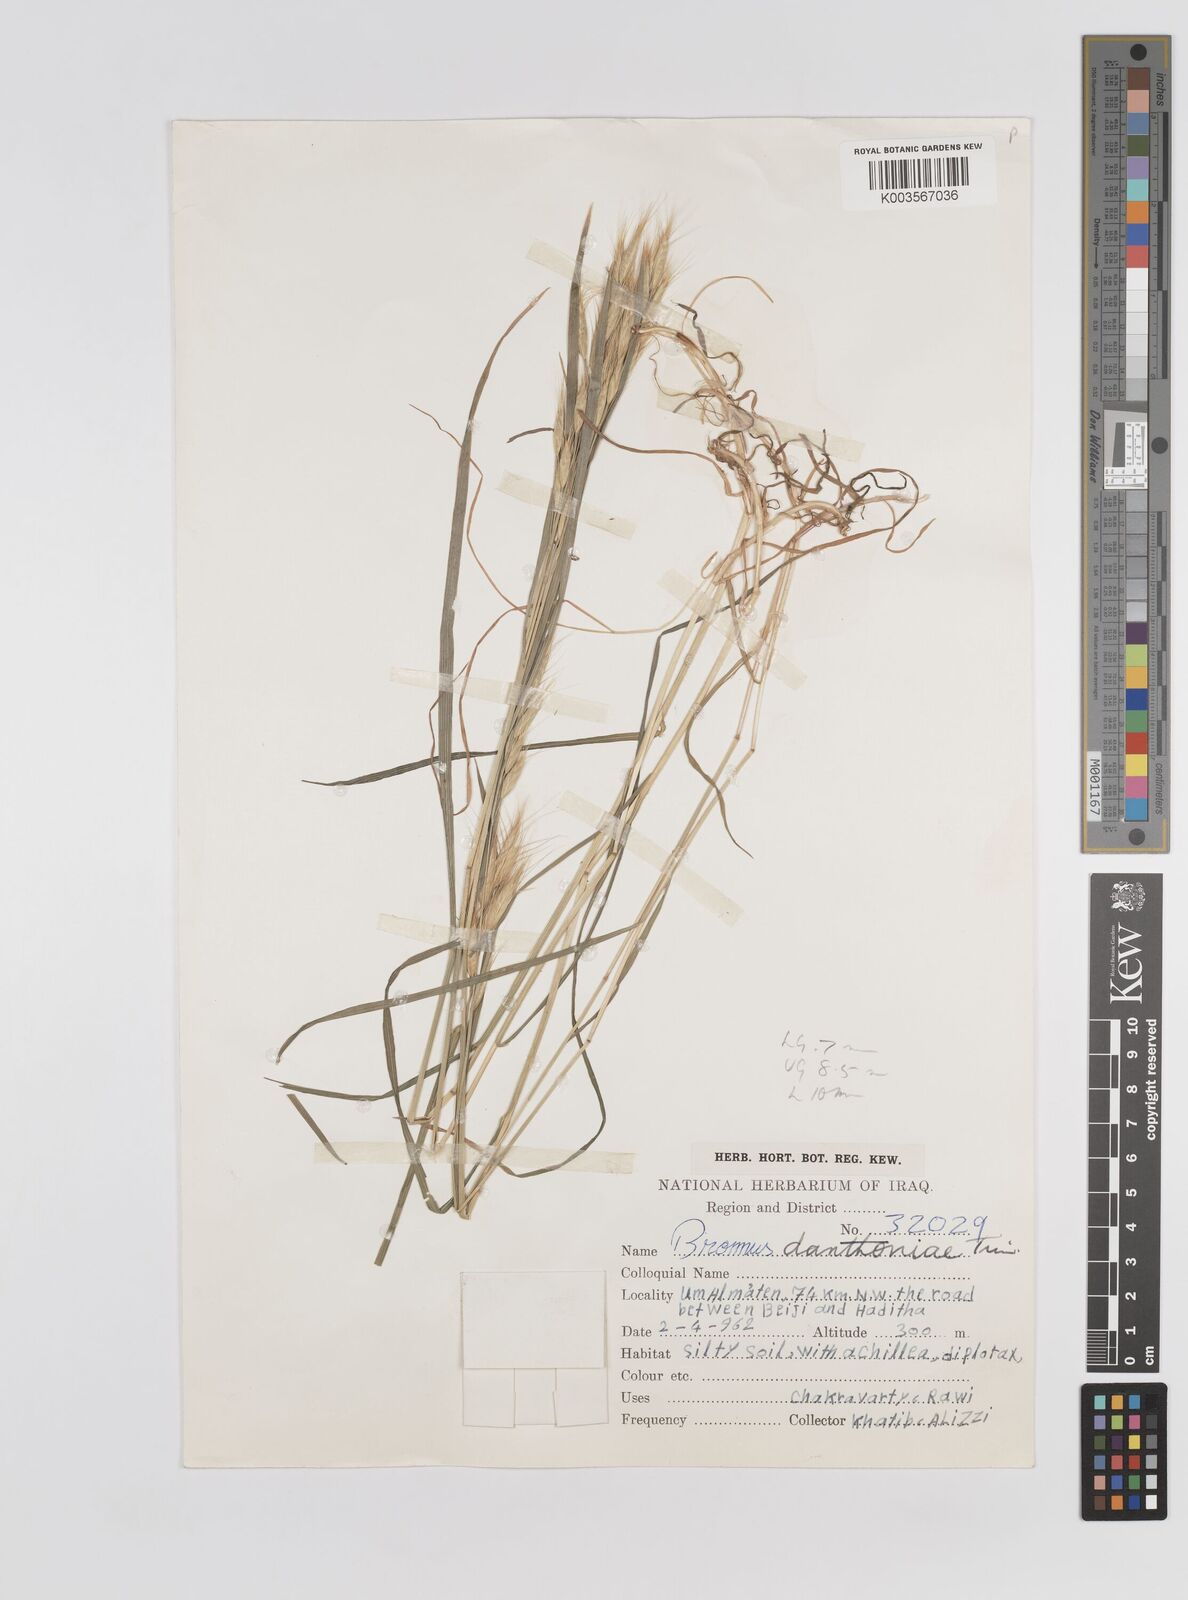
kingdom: Plantae
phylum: Tracheophyta
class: Liliopsida
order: Poales
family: Poaceae
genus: Bromus
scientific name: Bromus danthoniae
